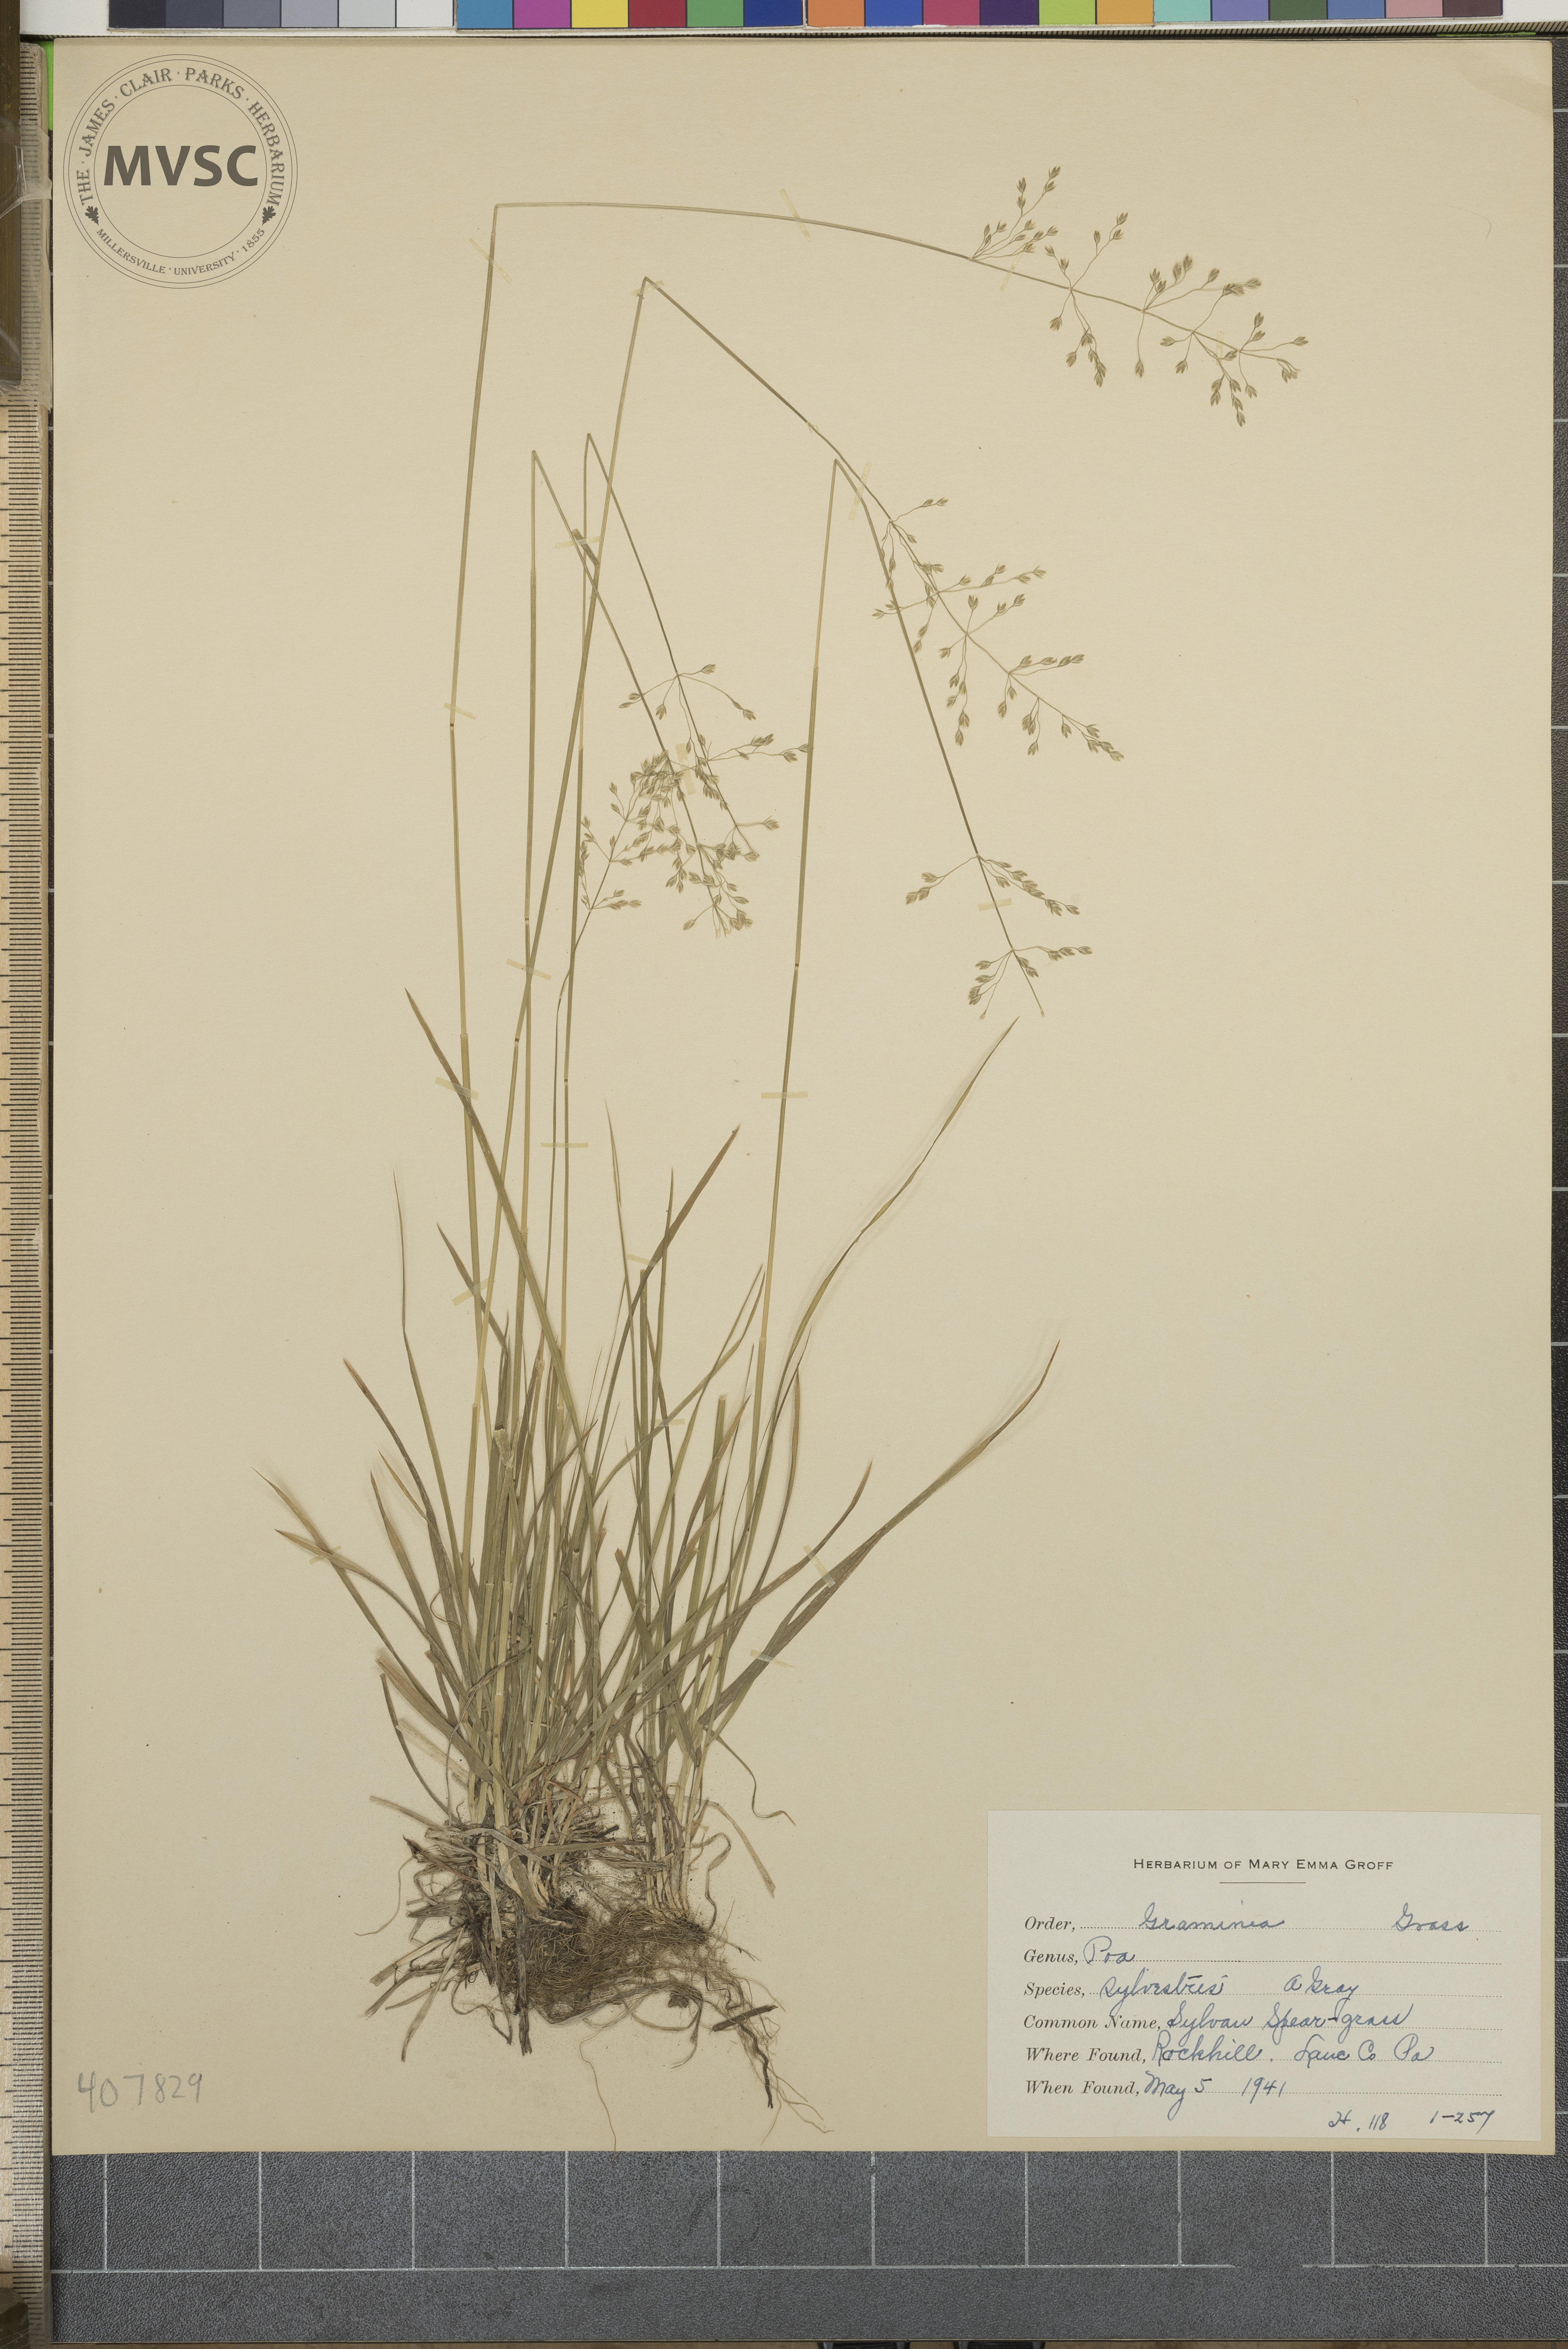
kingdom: Plantae
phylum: Tracheophyta
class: Liliopsida
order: Poales
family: Poaceae
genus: Poa
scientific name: Poa sylvestris
